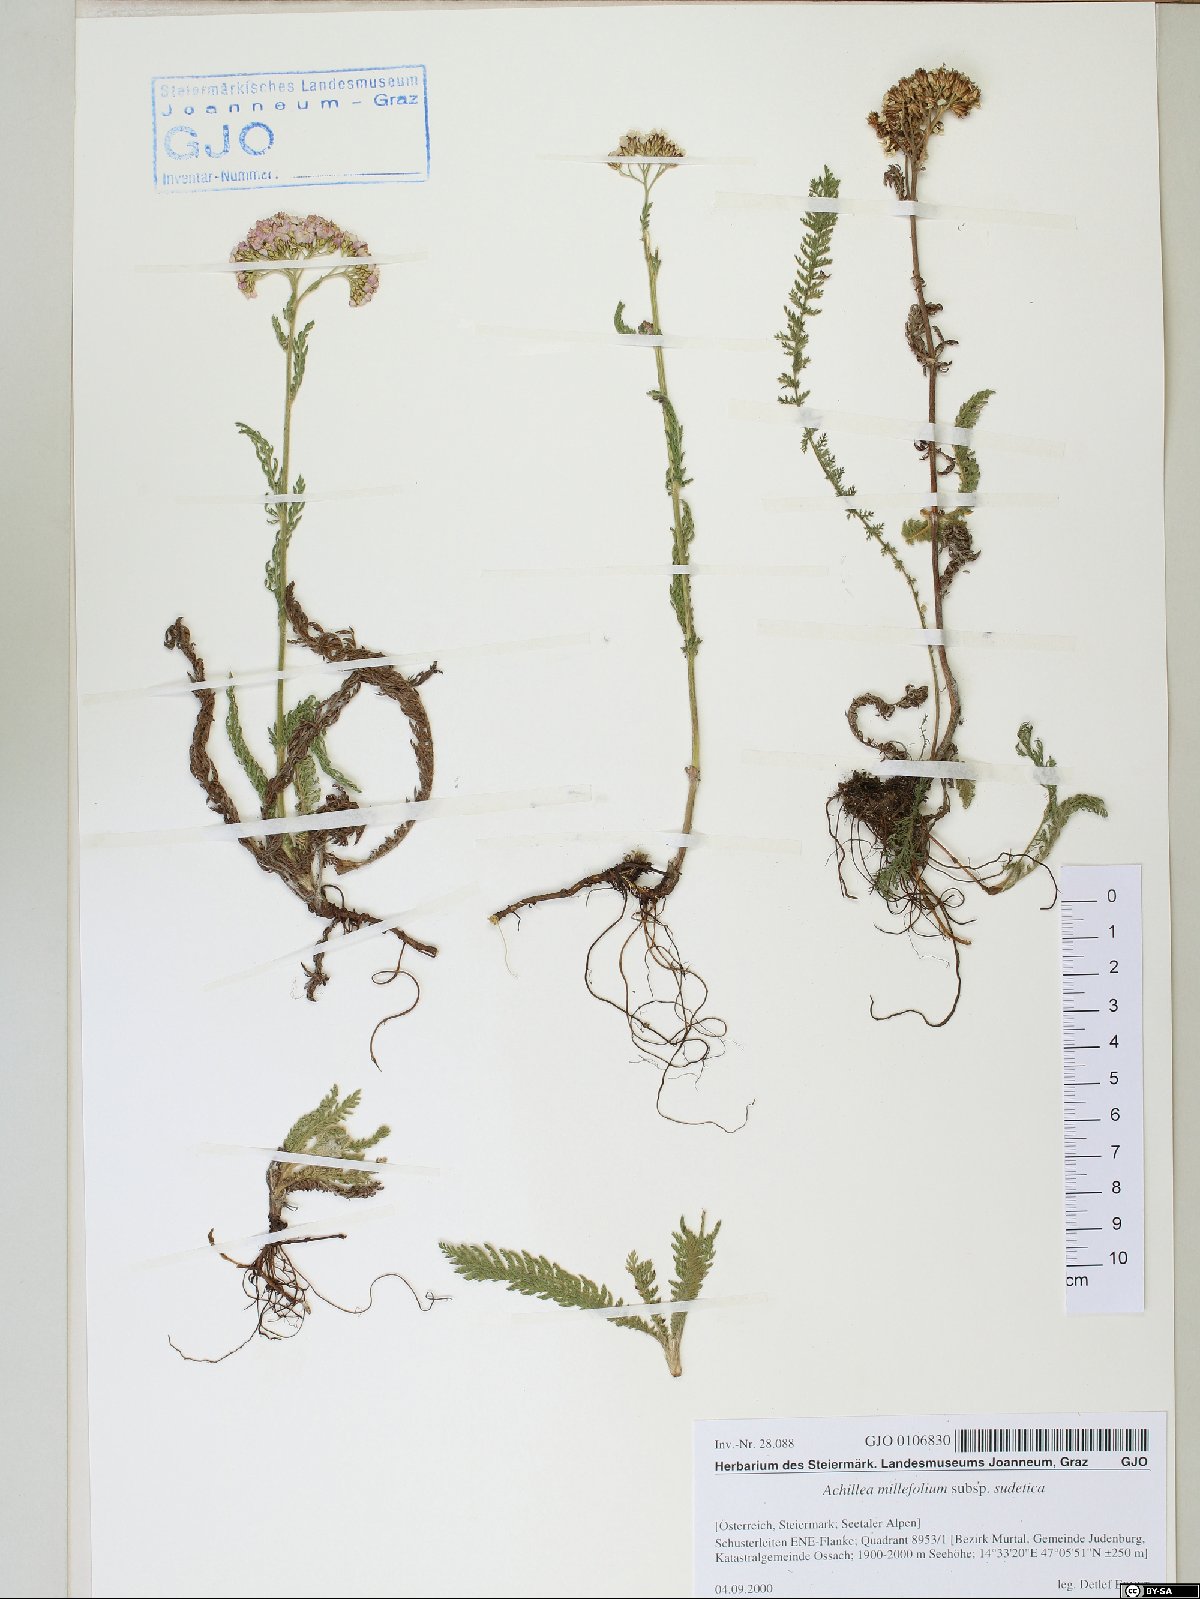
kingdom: Plantae
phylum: Tracheophyta
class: Magnoliopsida
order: Asterales
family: Asteraceae
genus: Achillea
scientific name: Achillea millefolium
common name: Yarrow
